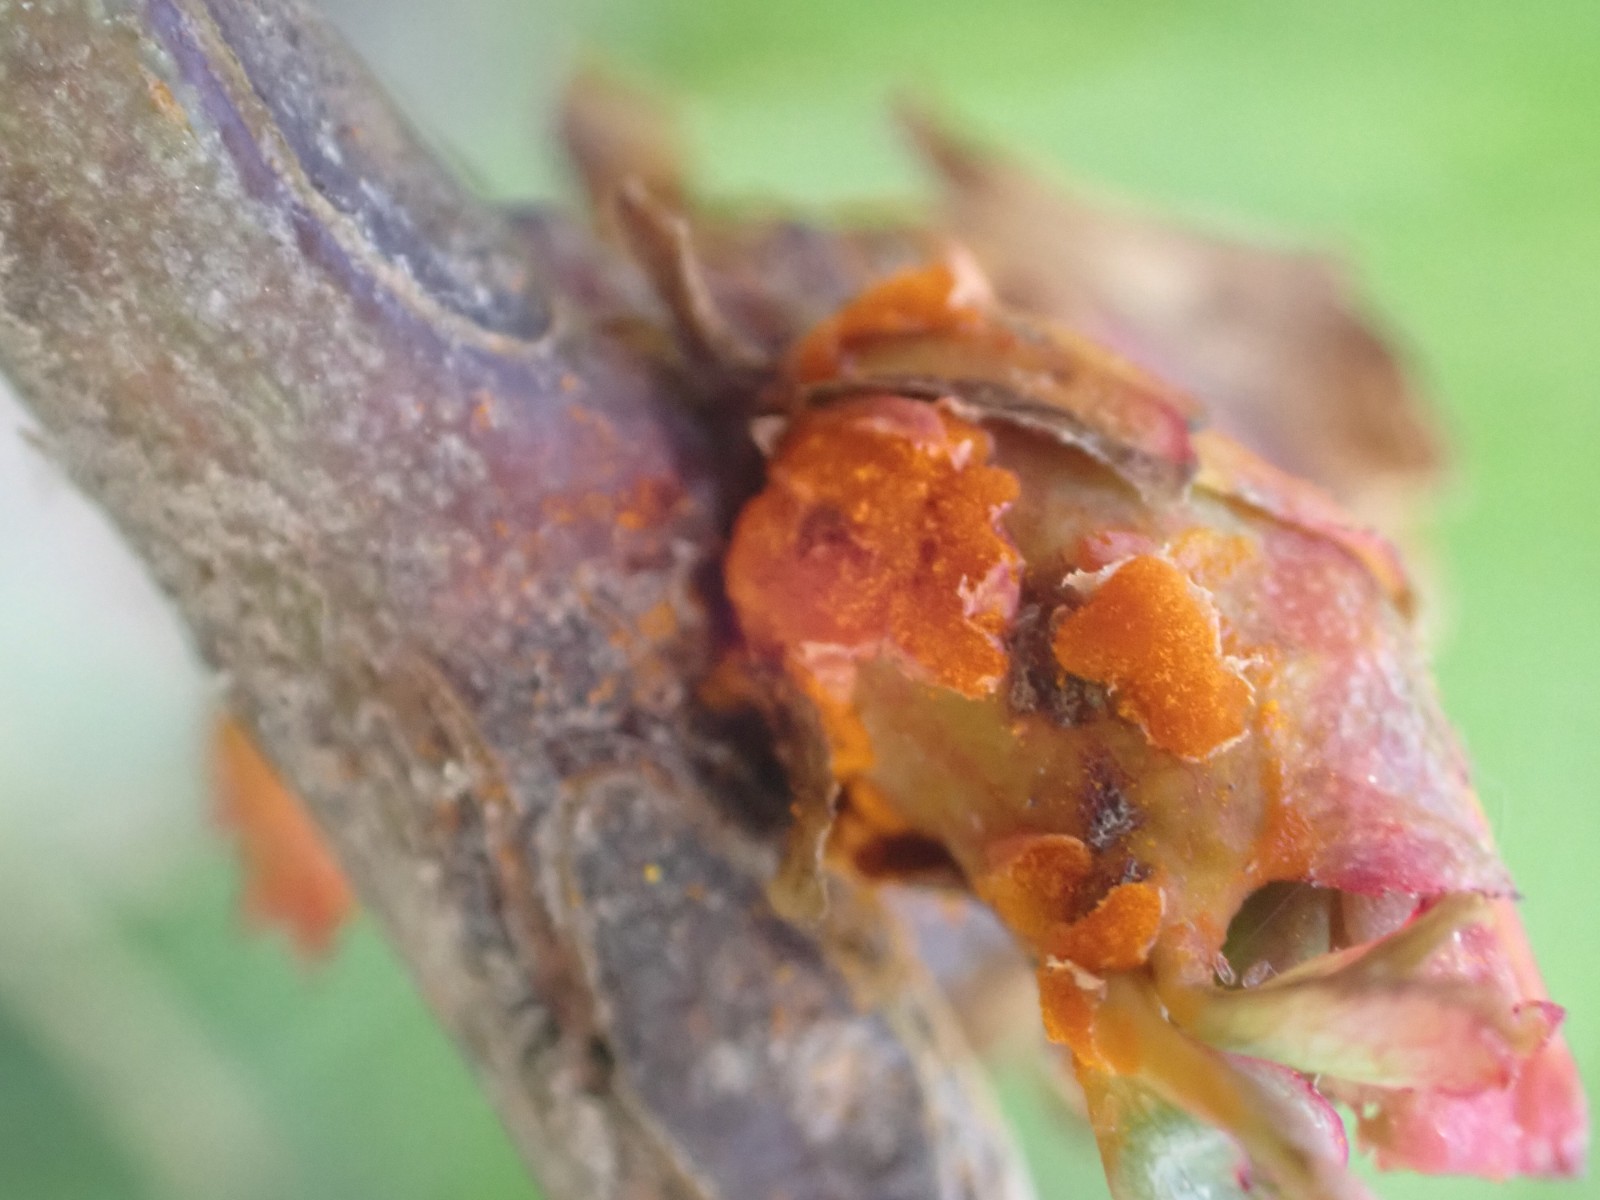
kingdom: Fungi
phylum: Basidiomycota
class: Pucciniomycetes
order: Pucciniales
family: Phragmidiaceae
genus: Phragmidium
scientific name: Phragmidium
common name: flercellerust
